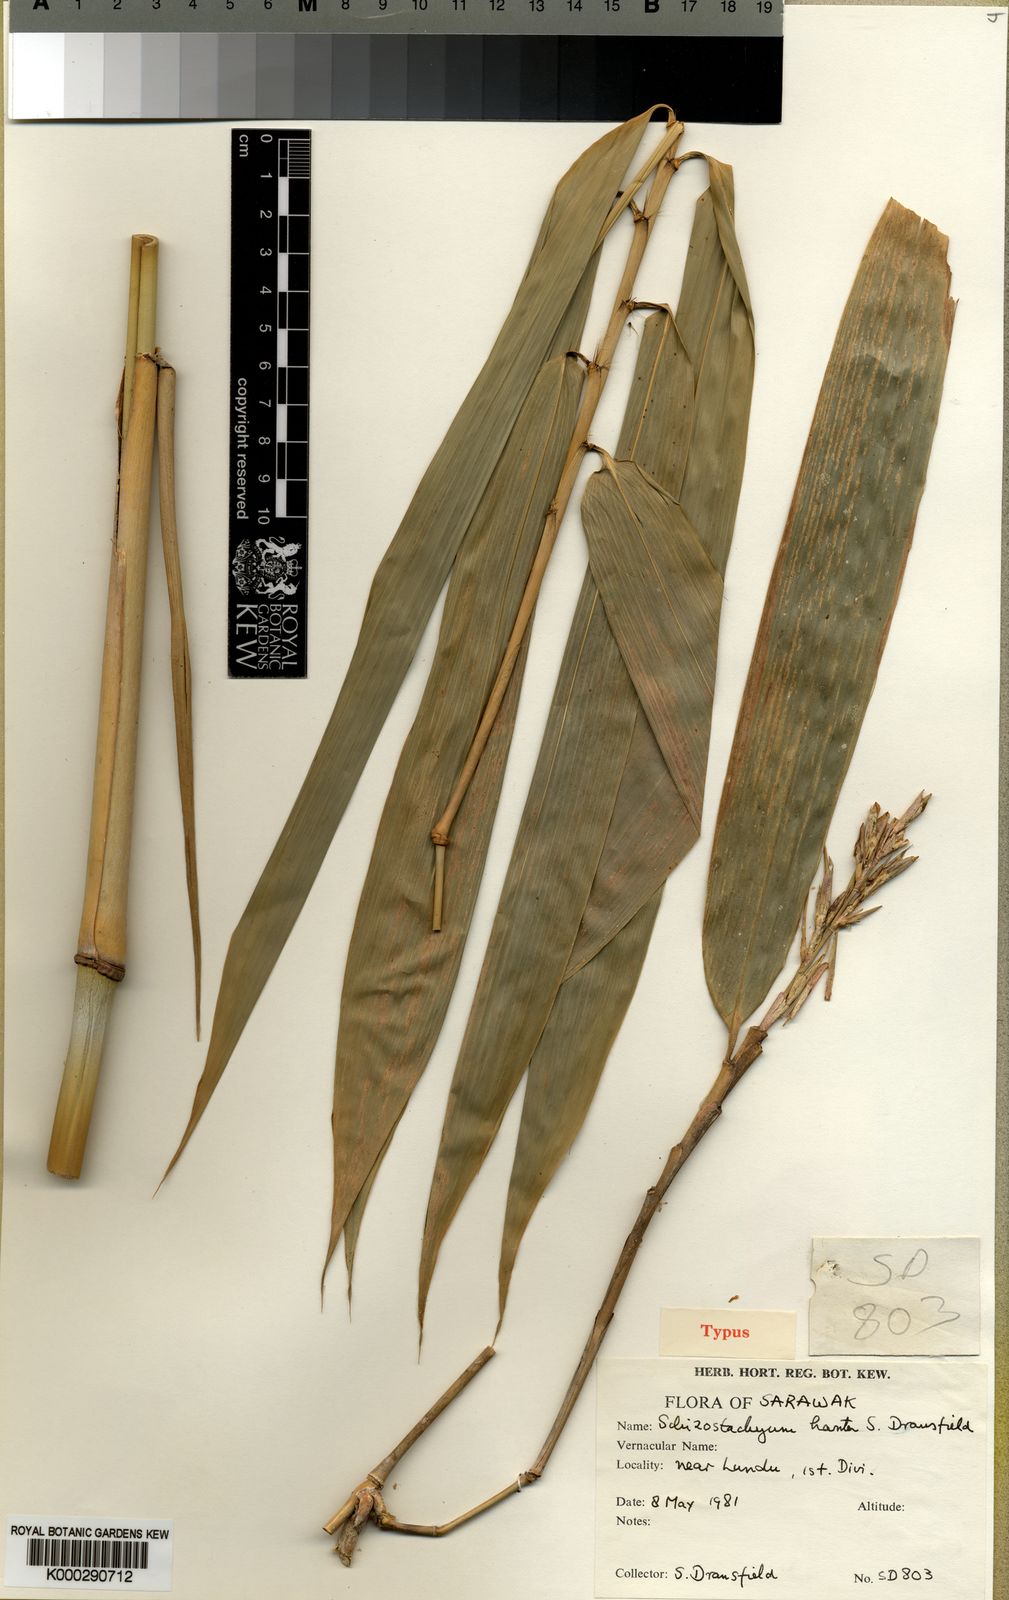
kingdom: Plantae
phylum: Tracheophyta
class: Liliopsida
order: Poales
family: Poaceae
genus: Schizostachyum
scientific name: Schizostachyum hantu
